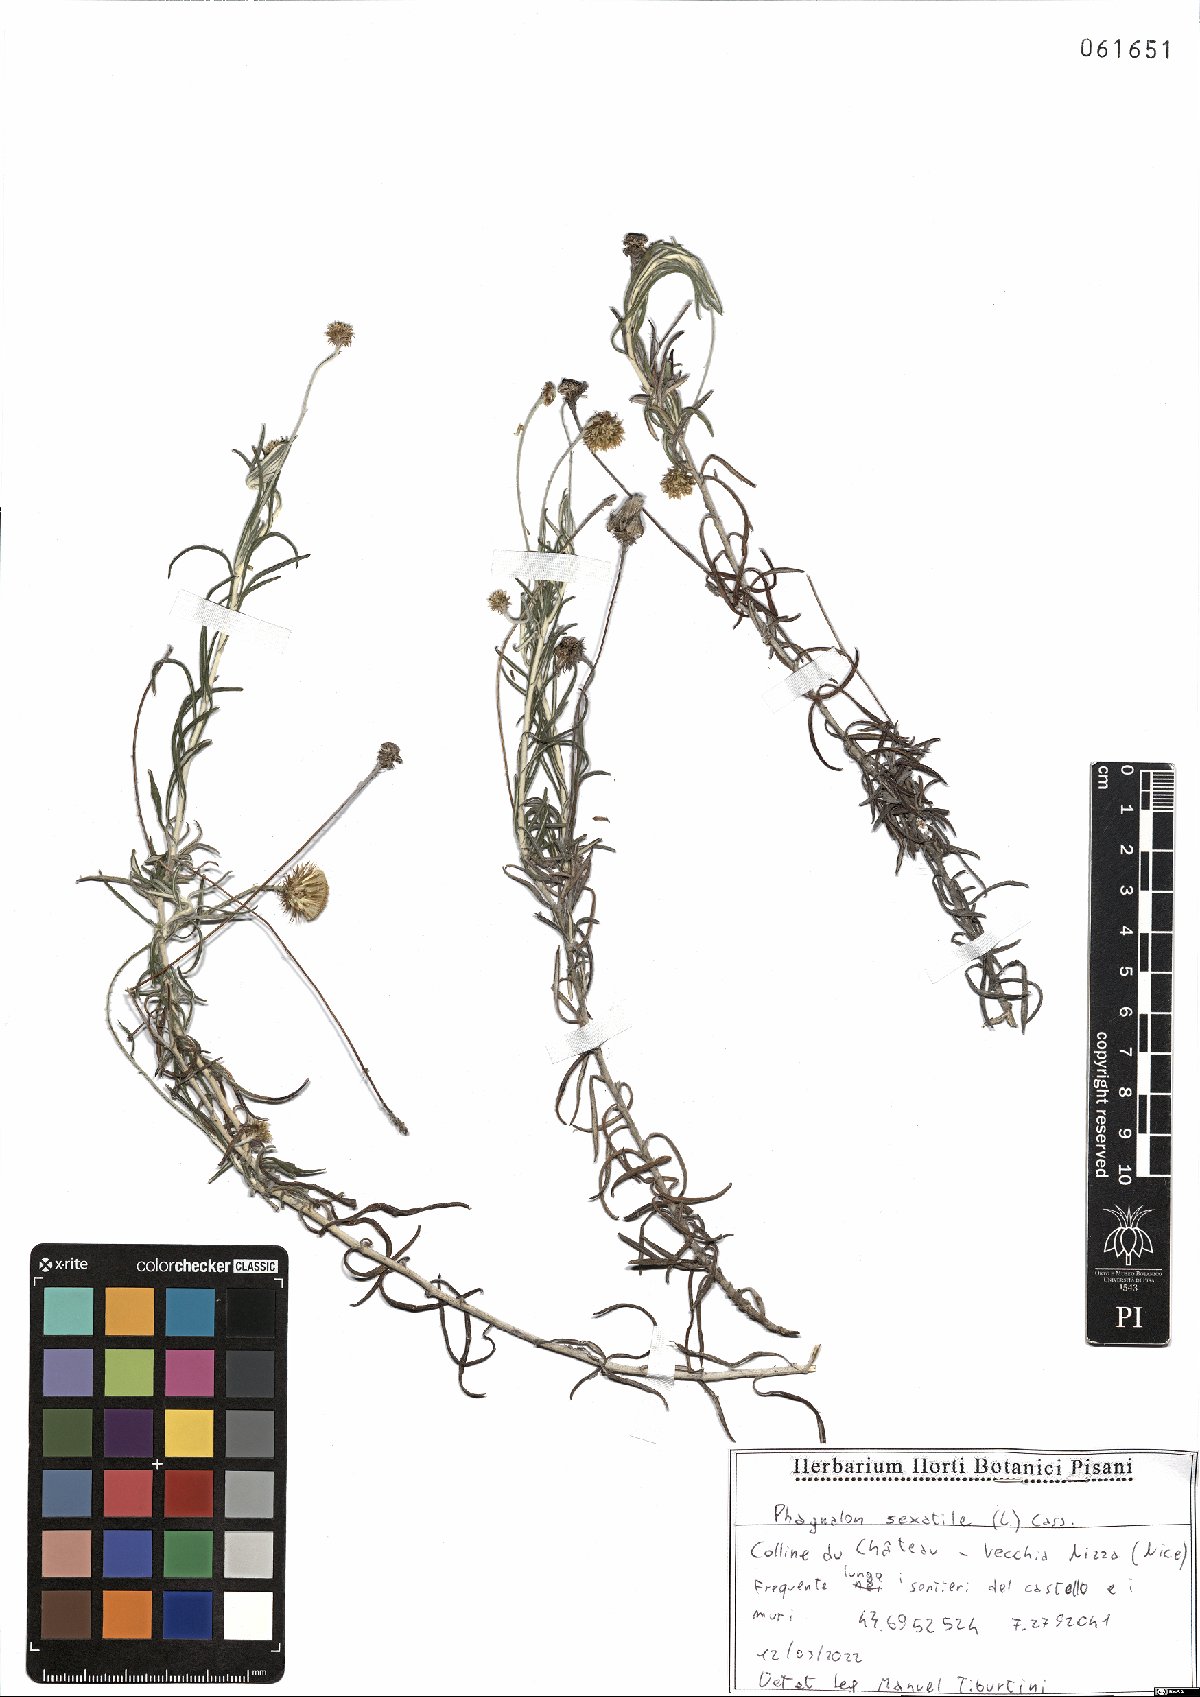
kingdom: Plantae
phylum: Tracheophyta
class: Magnoliopsida
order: Asterales
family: Asteraceae
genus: Phagnalon
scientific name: Phagnalon saxatile
